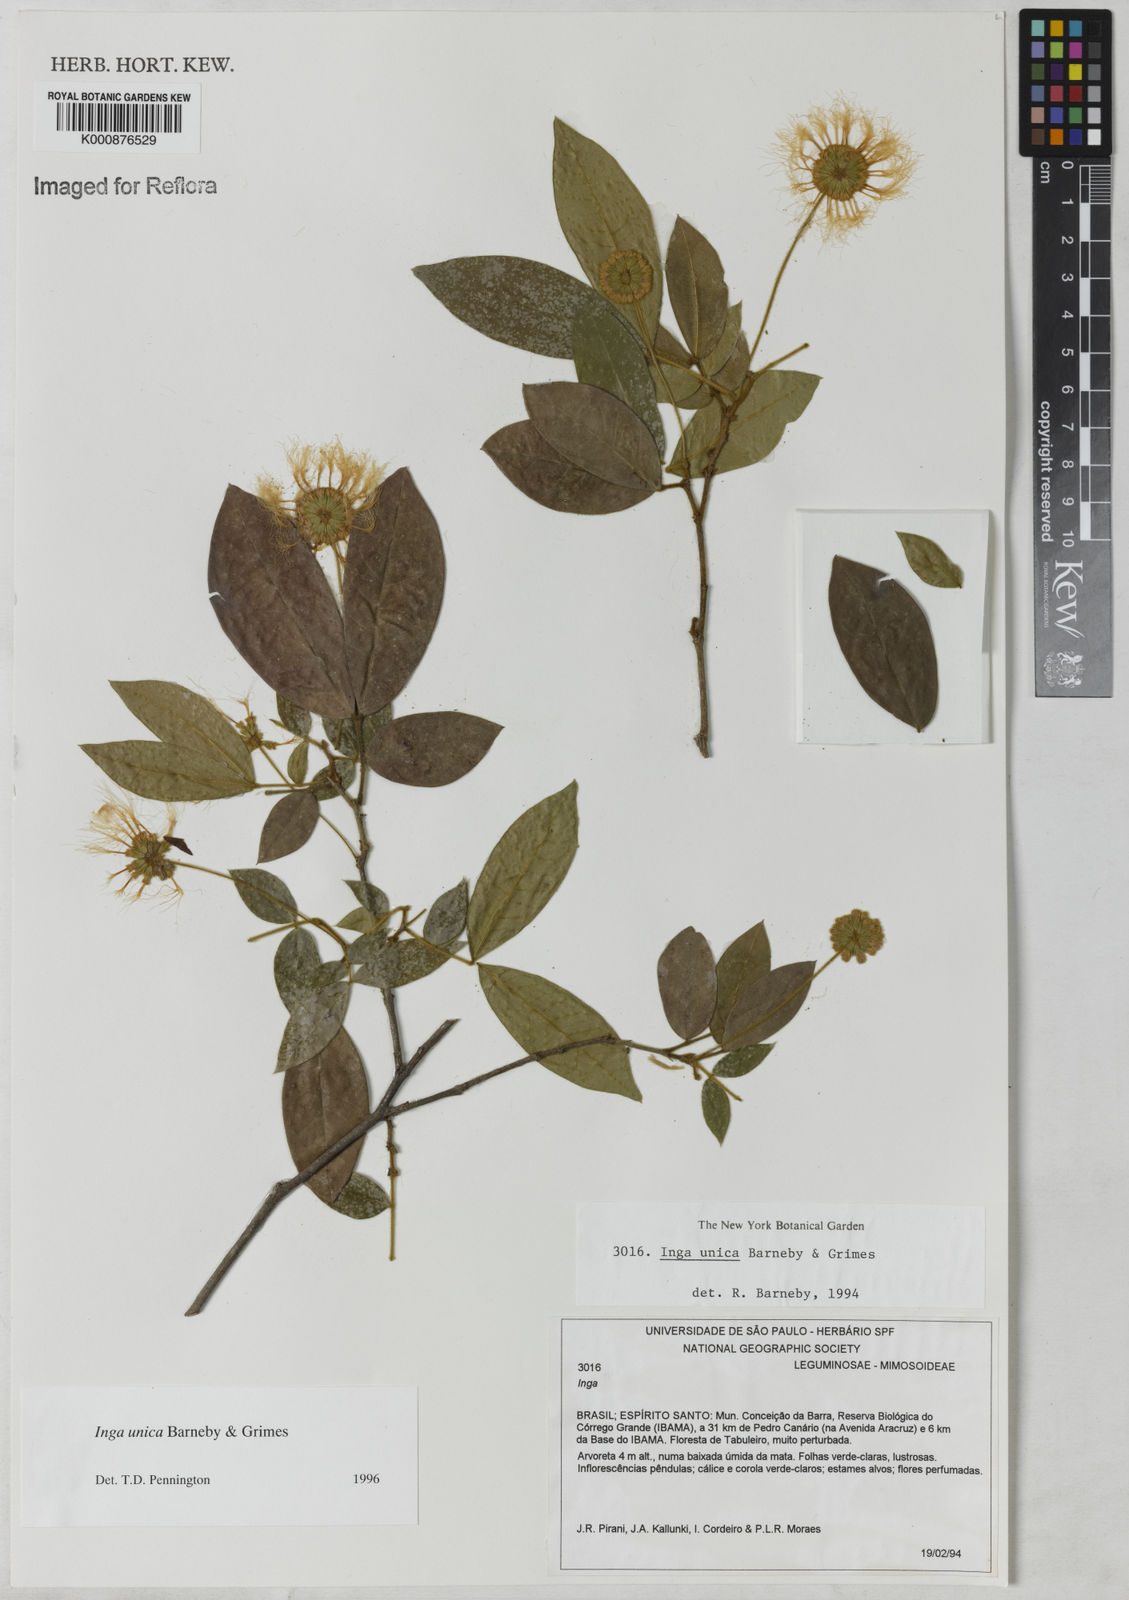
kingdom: Plantae
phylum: Tracheophyta
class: Magnoliopsida
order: Fabales
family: Fabaceae
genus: Inga
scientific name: Inga unica
